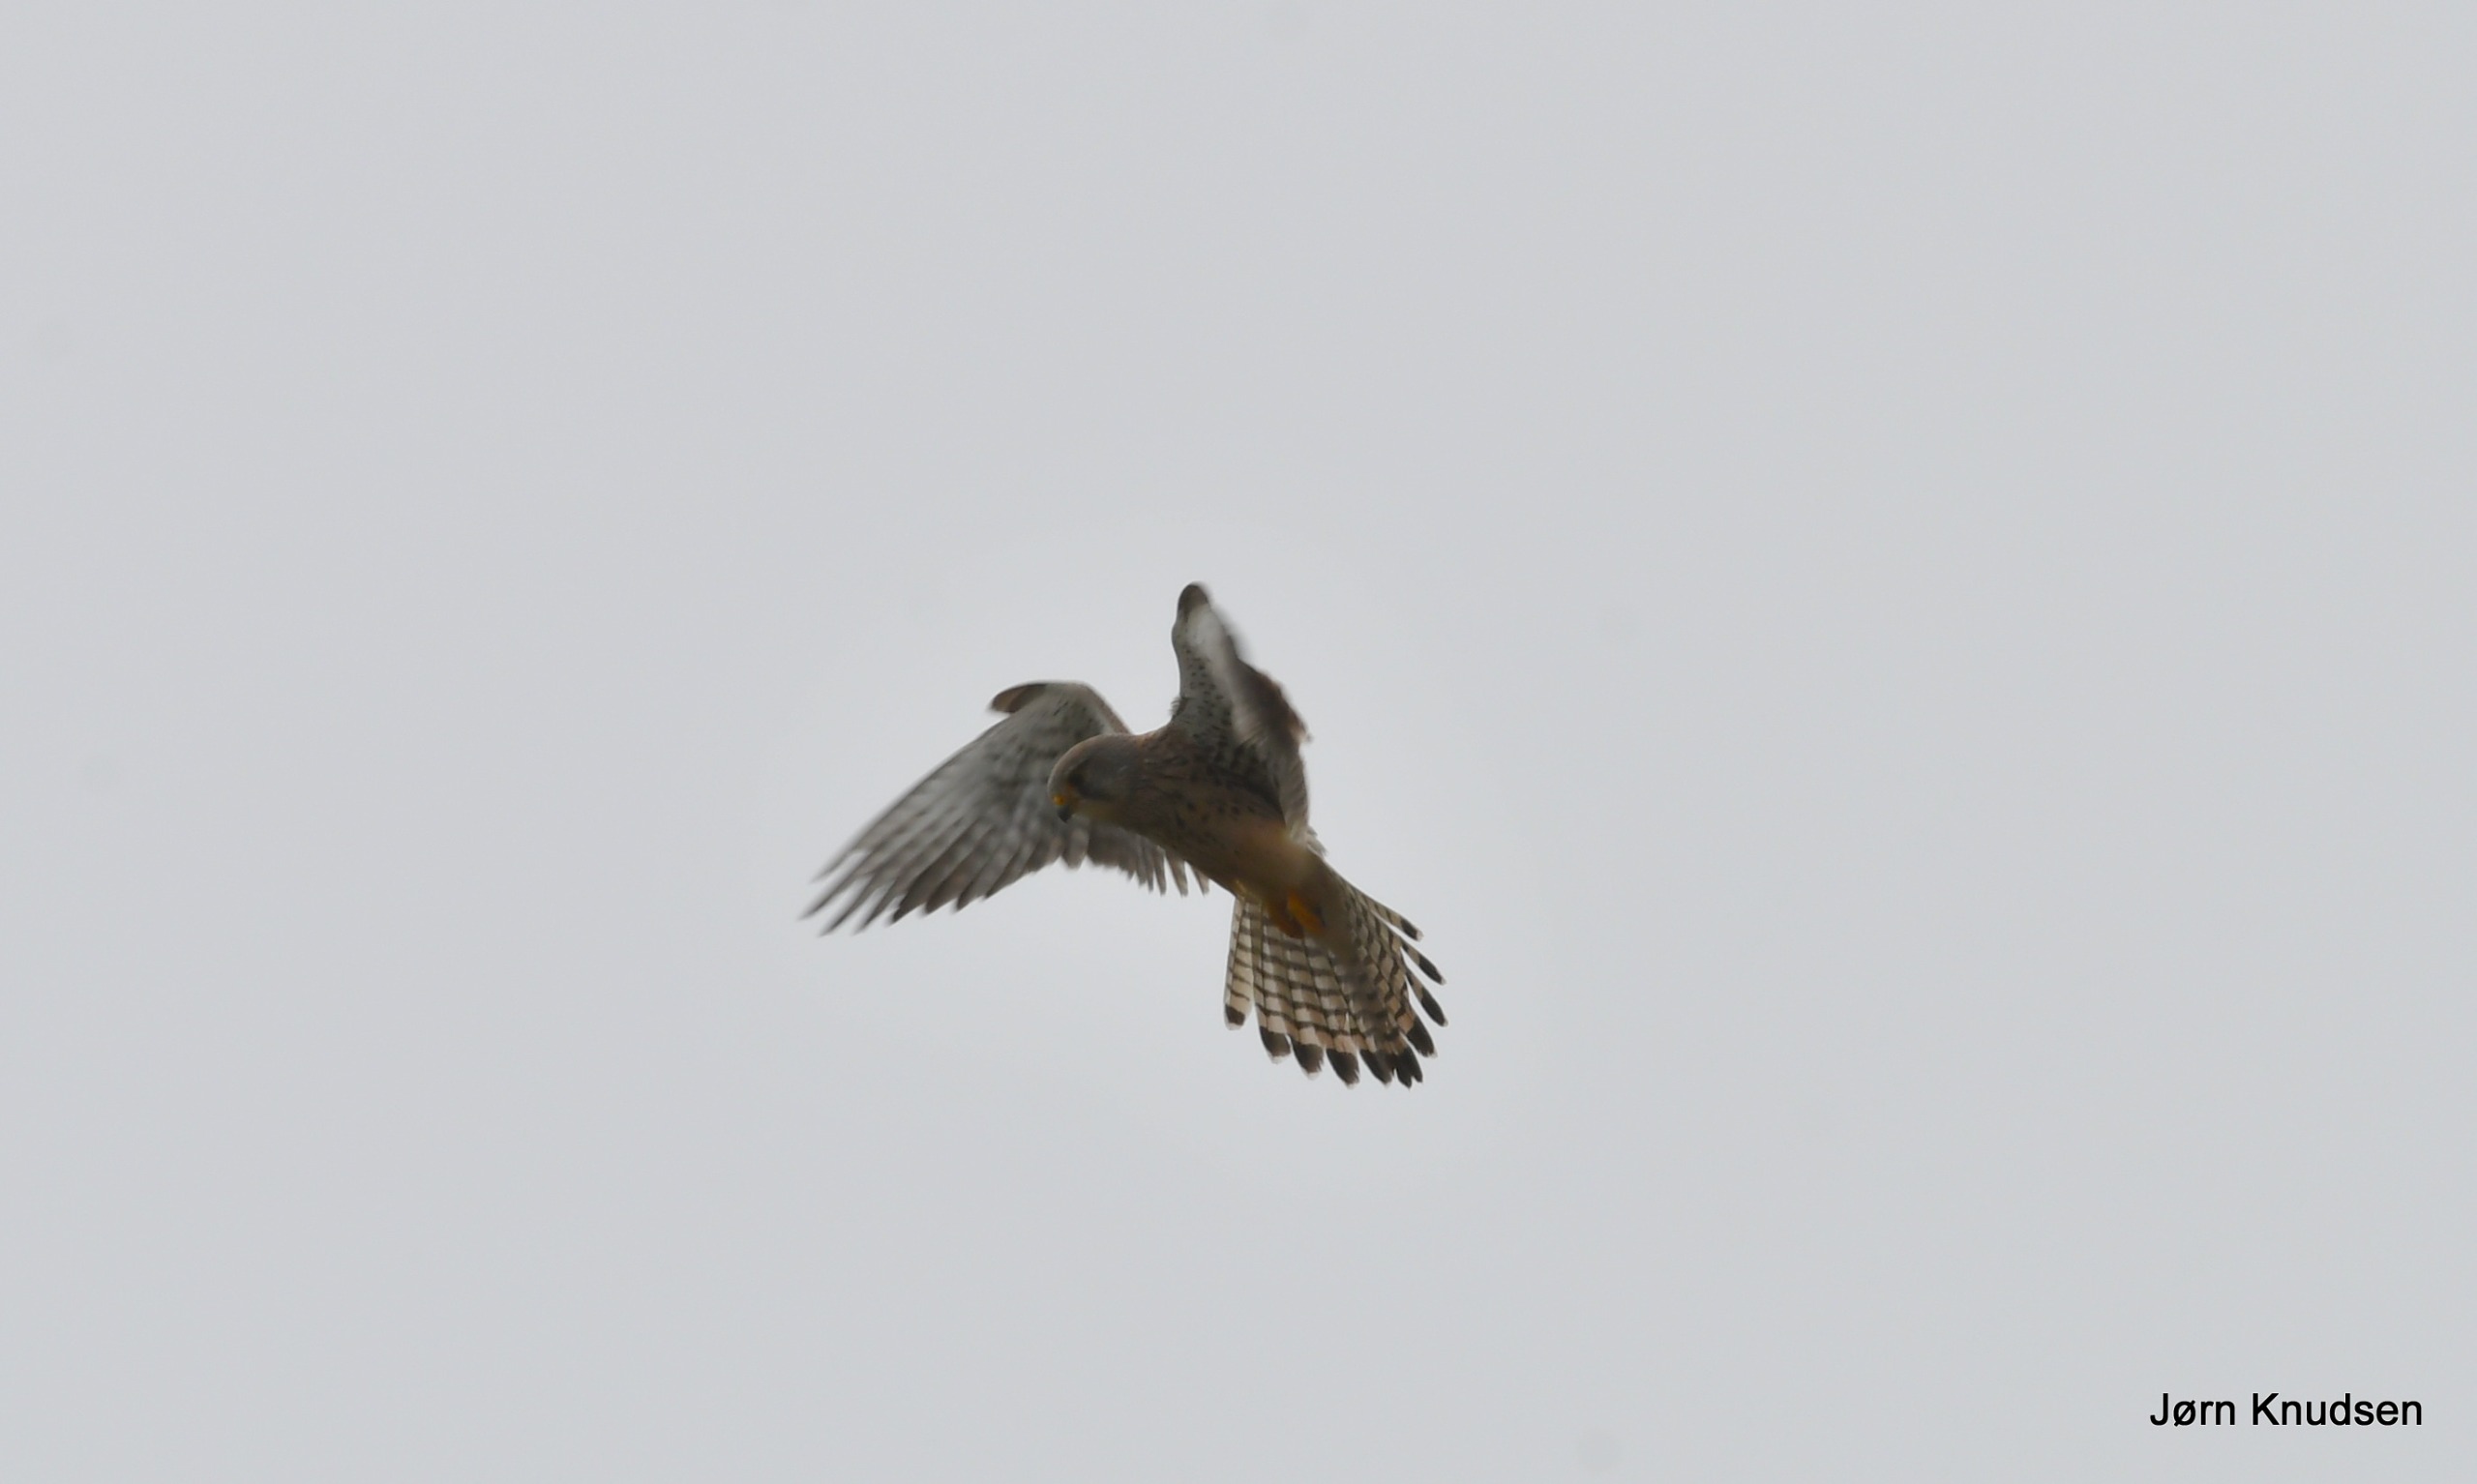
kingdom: Animalia
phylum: Chordata
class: Aves
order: Falconiformes
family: Falconidae
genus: Falco
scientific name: Falco tinnunculus
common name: Tårnfalk
